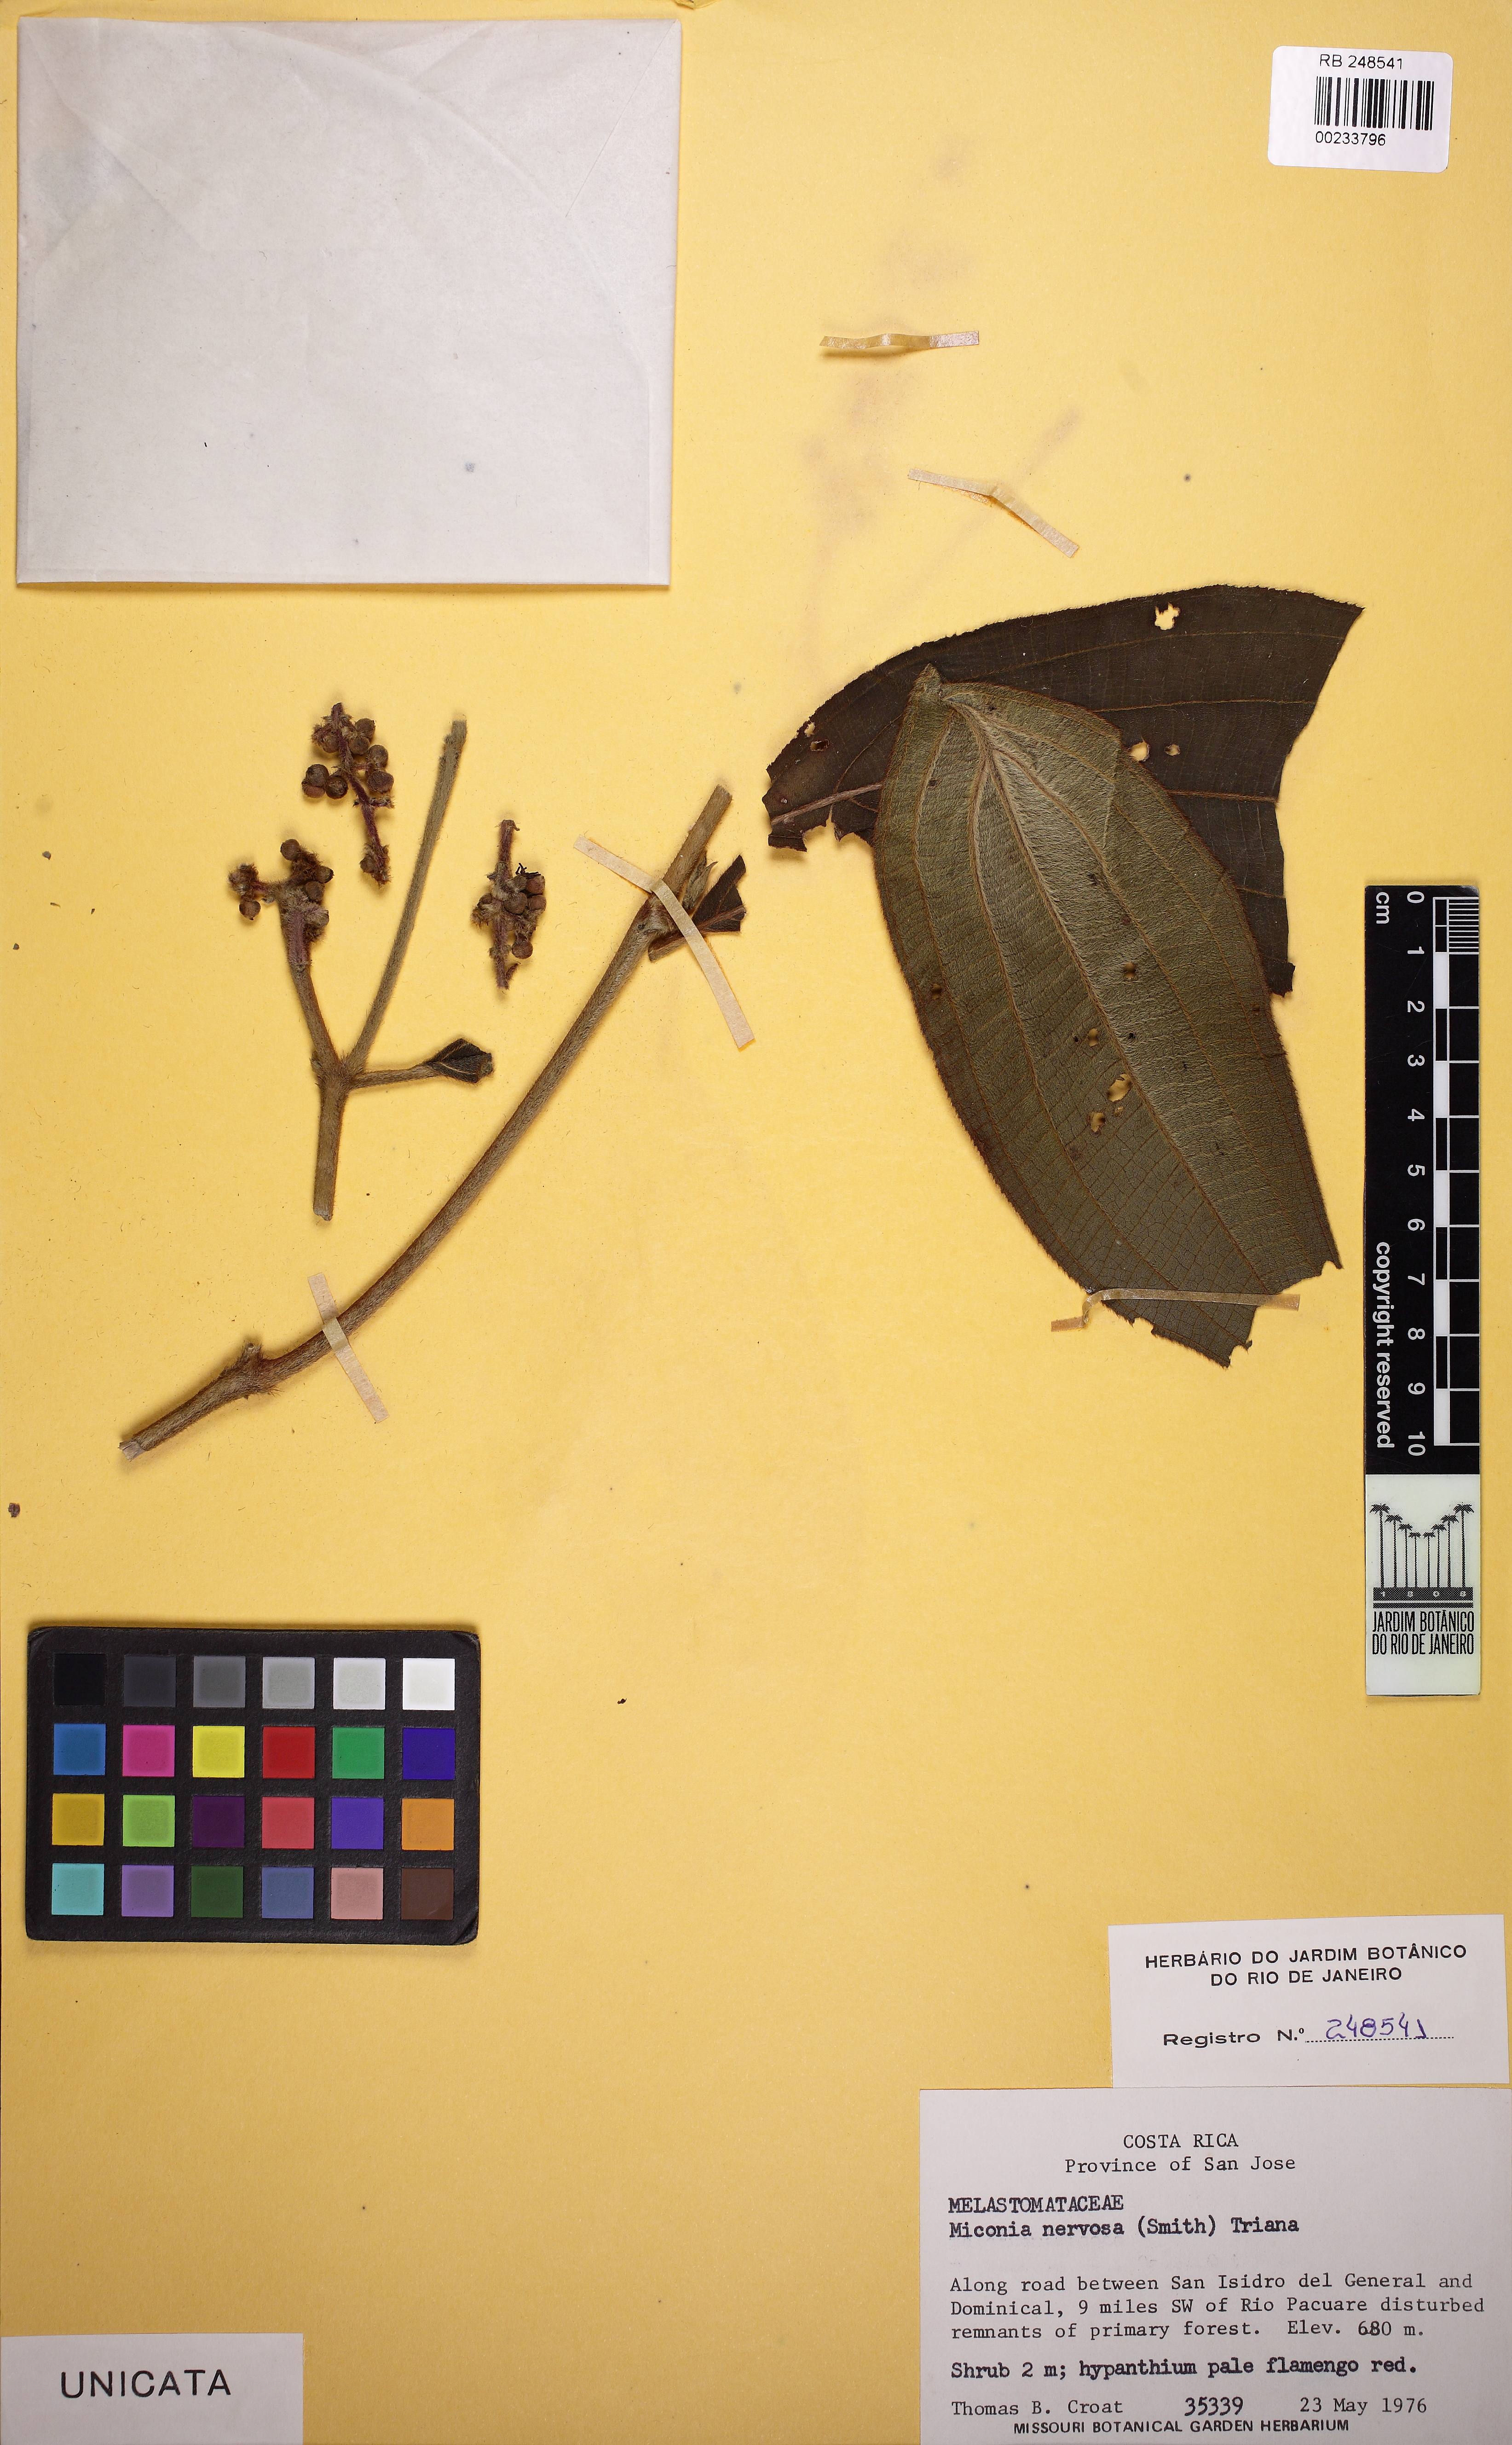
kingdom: Plantae
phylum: Tracheophyta
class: Magnoliopsida
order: Myrtales
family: Melastomataceae
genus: Miconia
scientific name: Miconia nervosa
